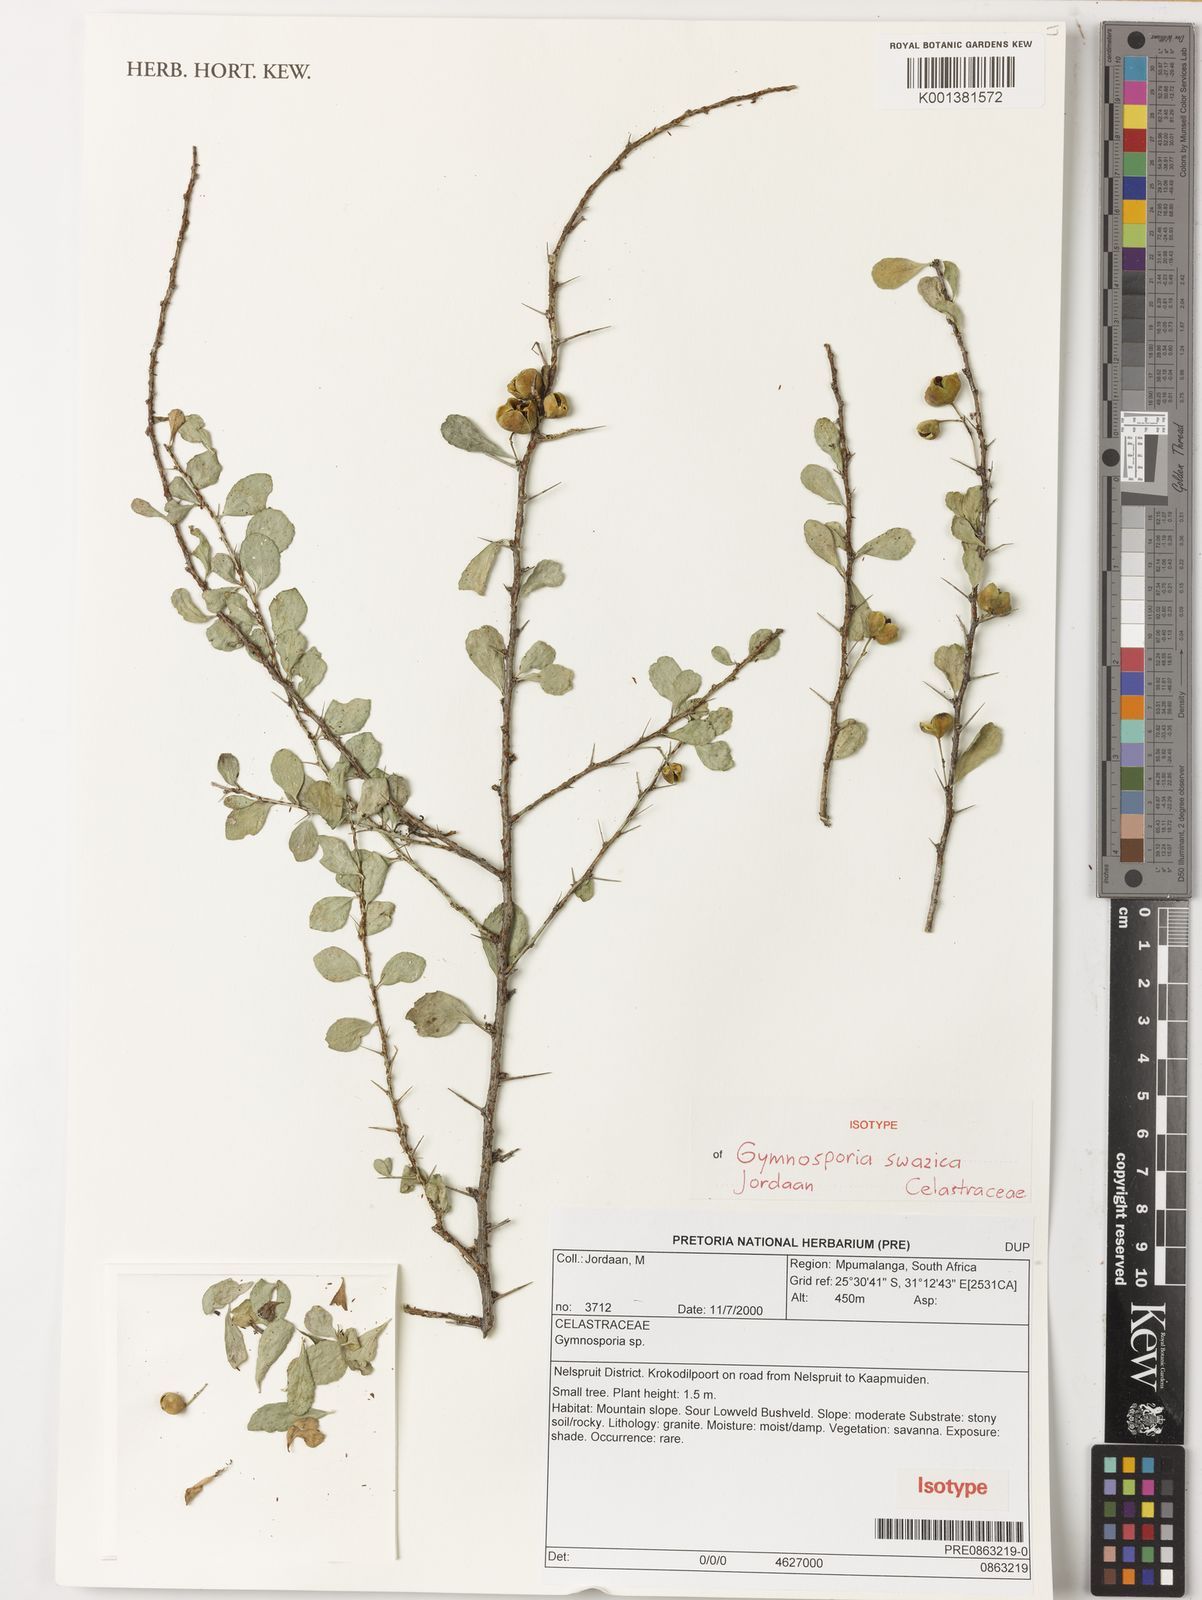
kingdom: Plantae
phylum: Tracheophyta
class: Magnoliopsida
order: Celastrales
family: Celastraceae
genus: Gymnosporia
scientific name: Gymnosporia swazica
